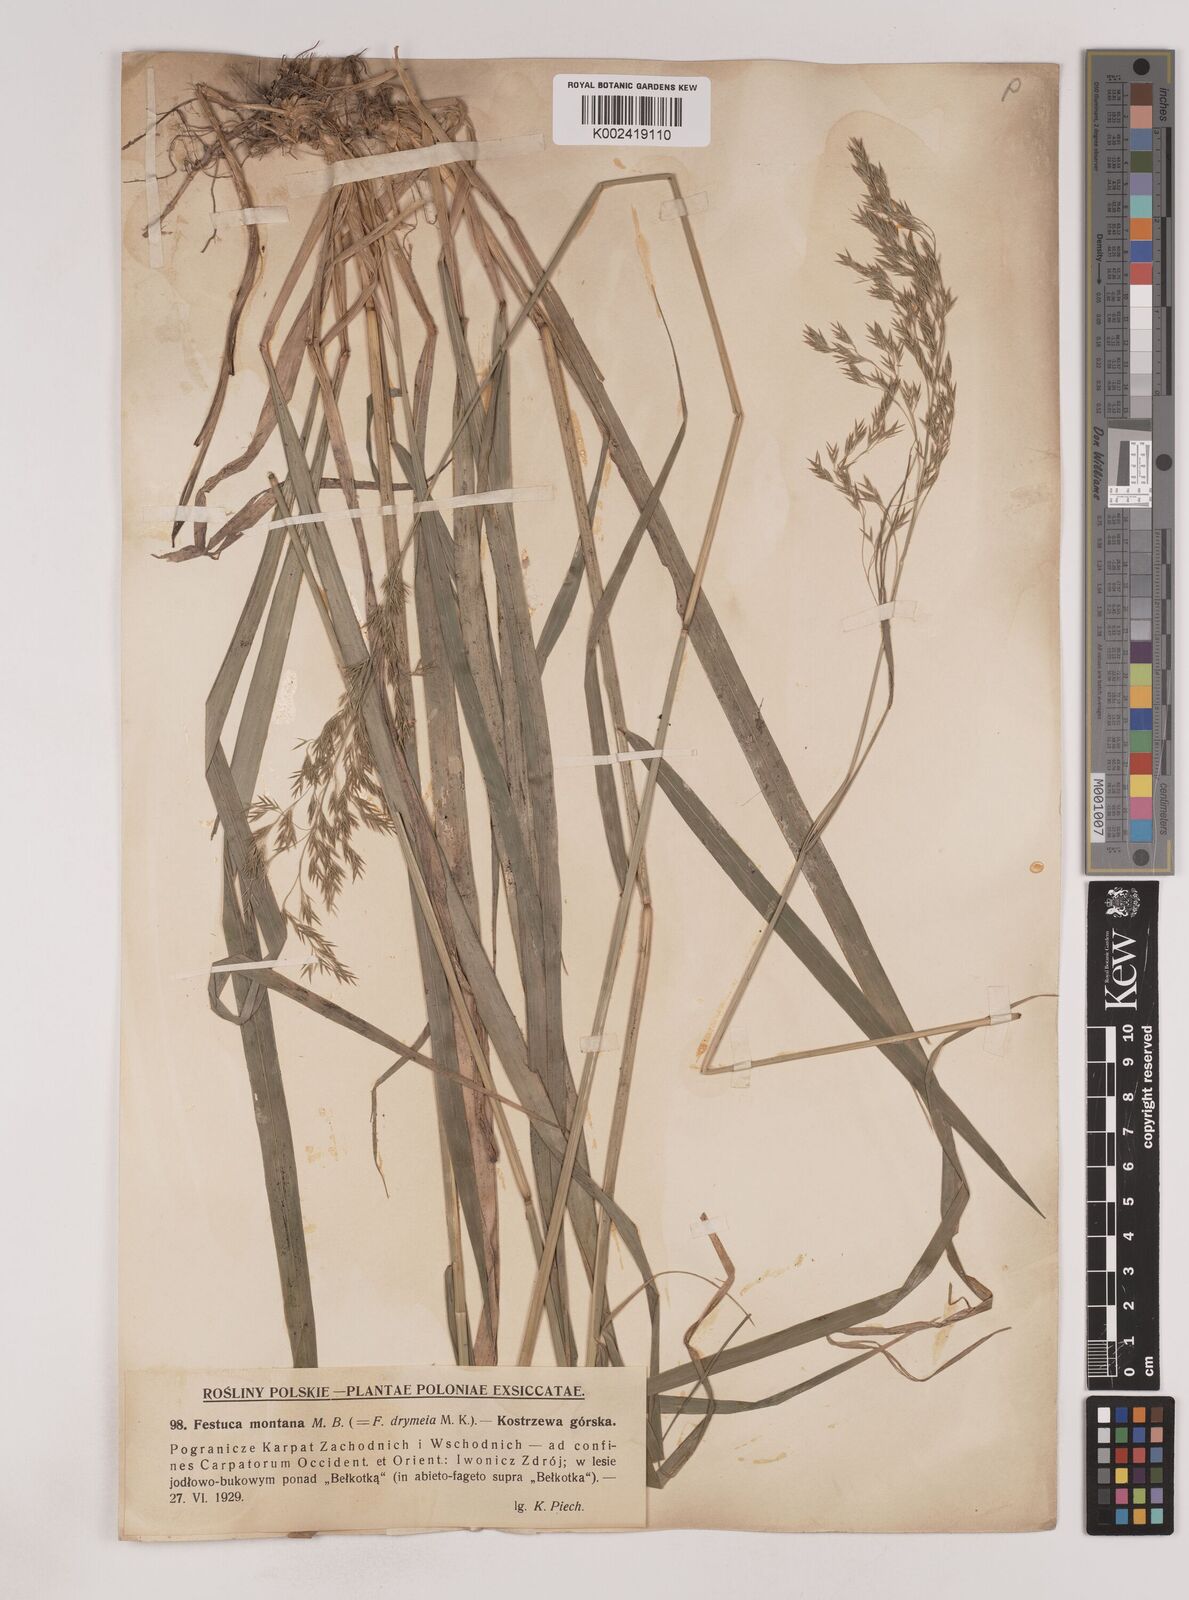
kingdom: Plantae
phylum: Tracheophyta
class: Liliopsida
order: Poales
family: Poaceae
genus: Festuca
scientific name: Festuca drymeja
